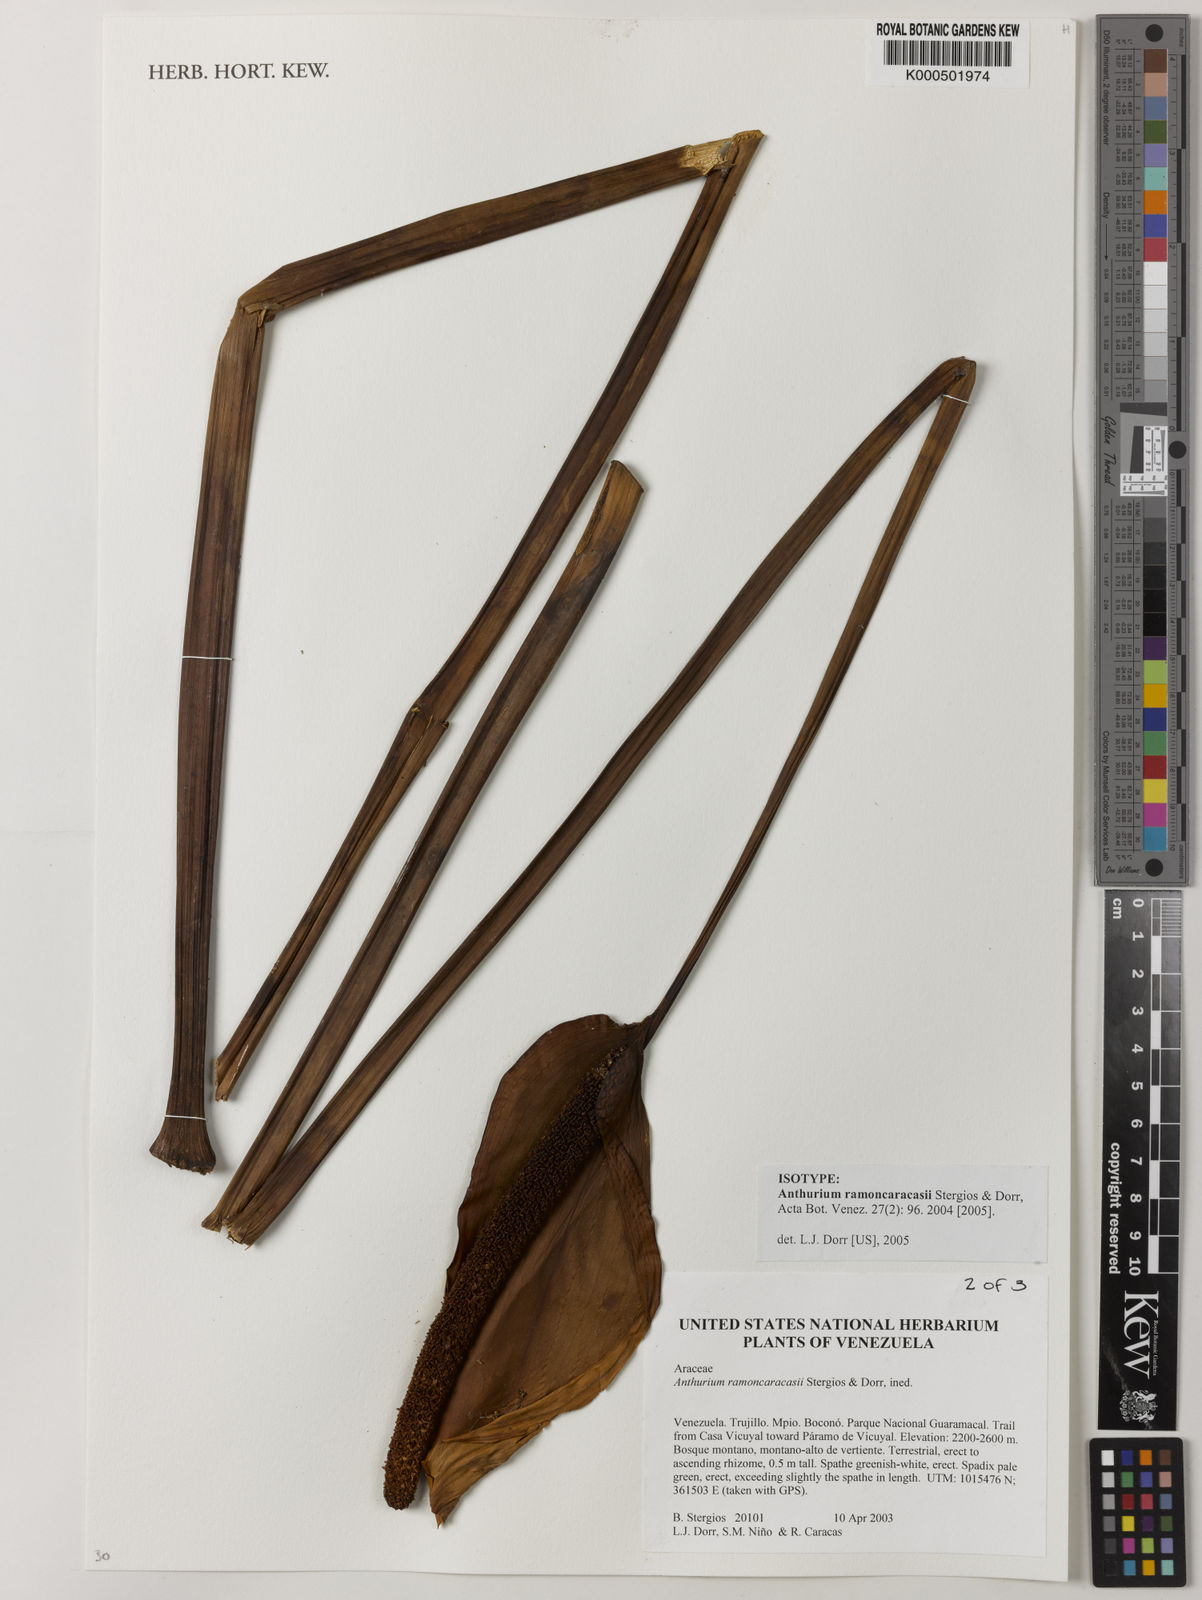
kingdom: Plantae
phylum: Tracheophyta
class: Liliopsida
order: Alismatales
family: Araceae
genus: Anthurium
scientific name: Anthurium ramoncaracasii
